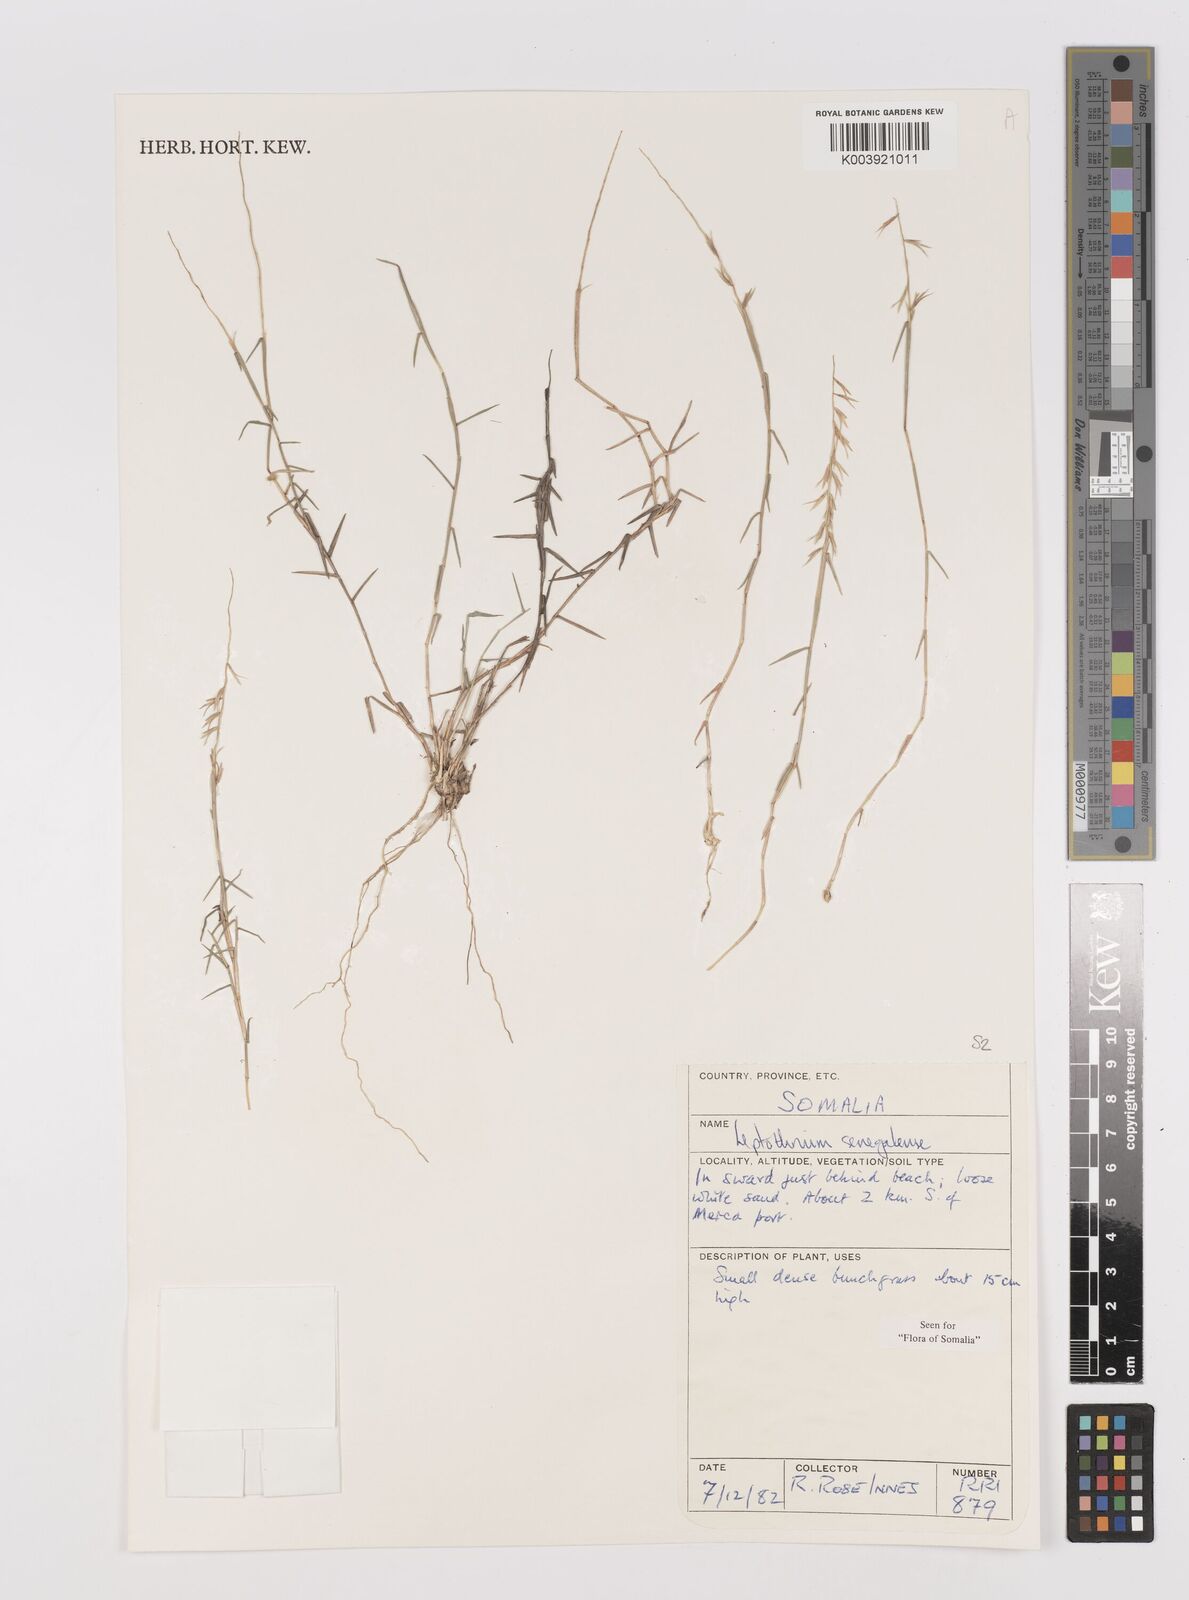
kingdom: Plantae
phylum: Tracheophyta
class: Liliopsida
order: Poales
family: Poaceae
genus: Leptothrium
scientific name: Leptothrium senegalense
